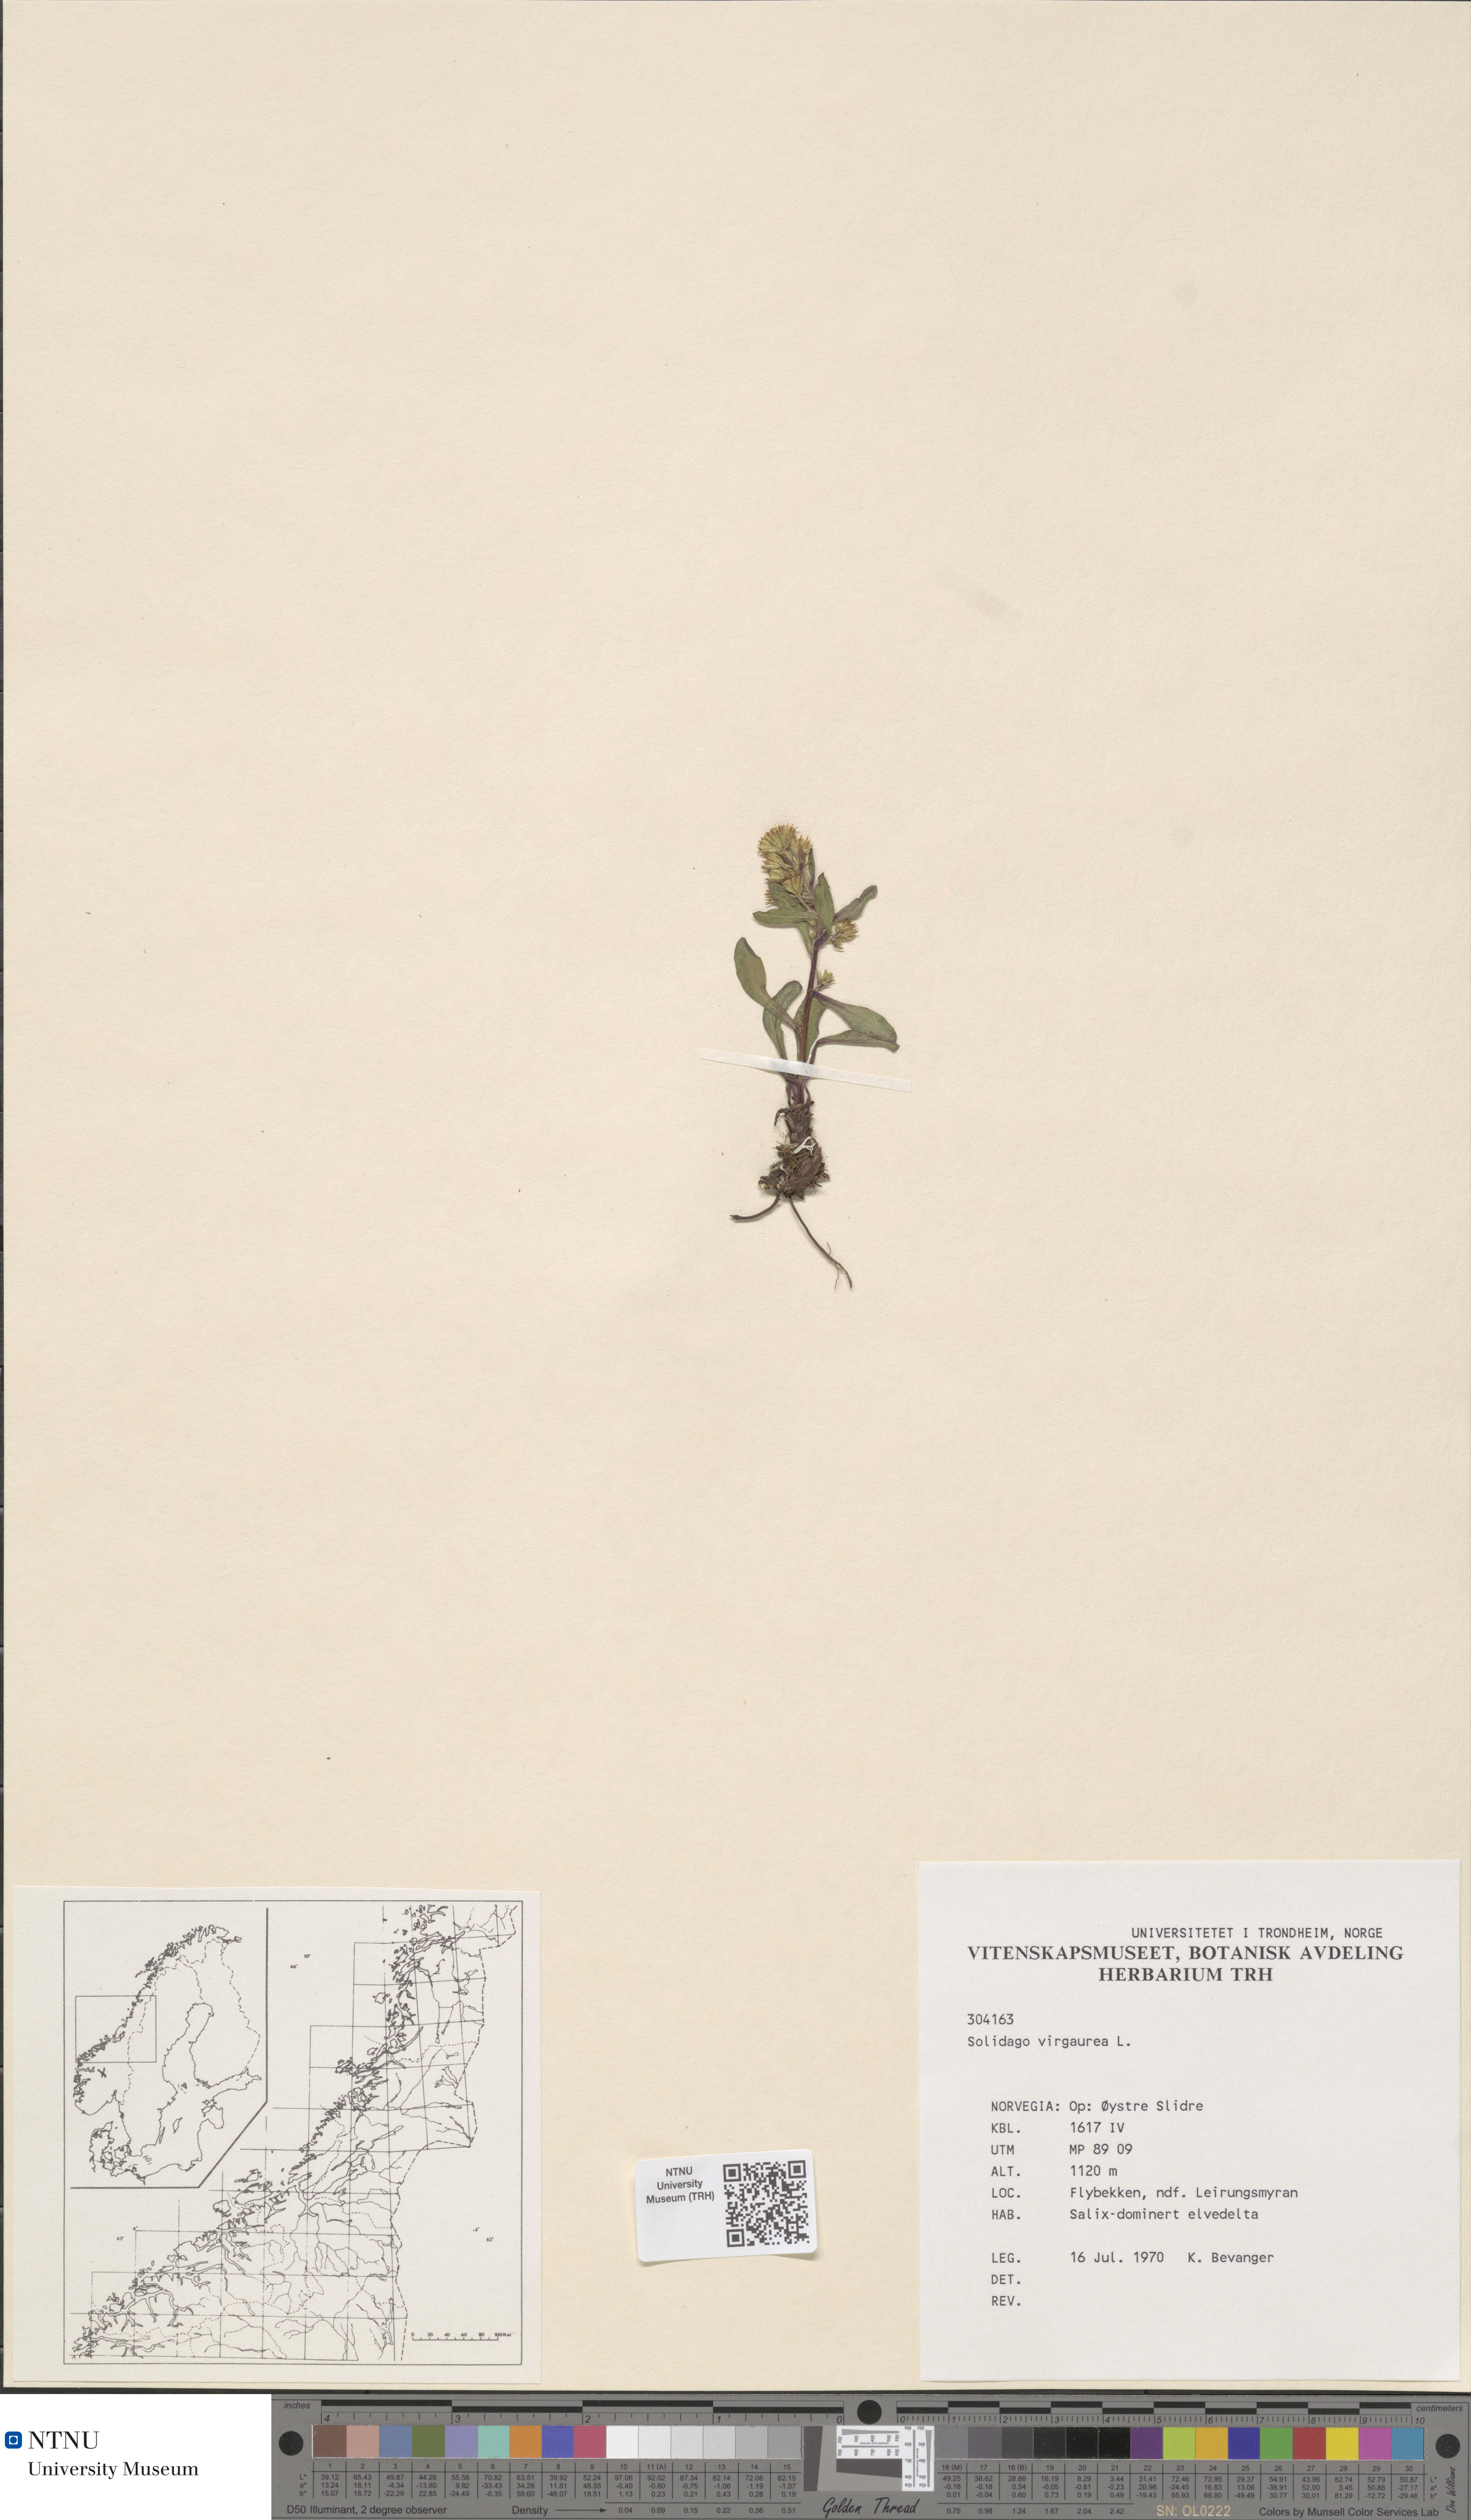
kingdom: Plantae
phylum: Tracheophyta
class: Magnoliopsida
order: Asterales
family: Asteraceae
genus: Solidago
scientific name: Solidago virgaurea
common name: Goldenrod
